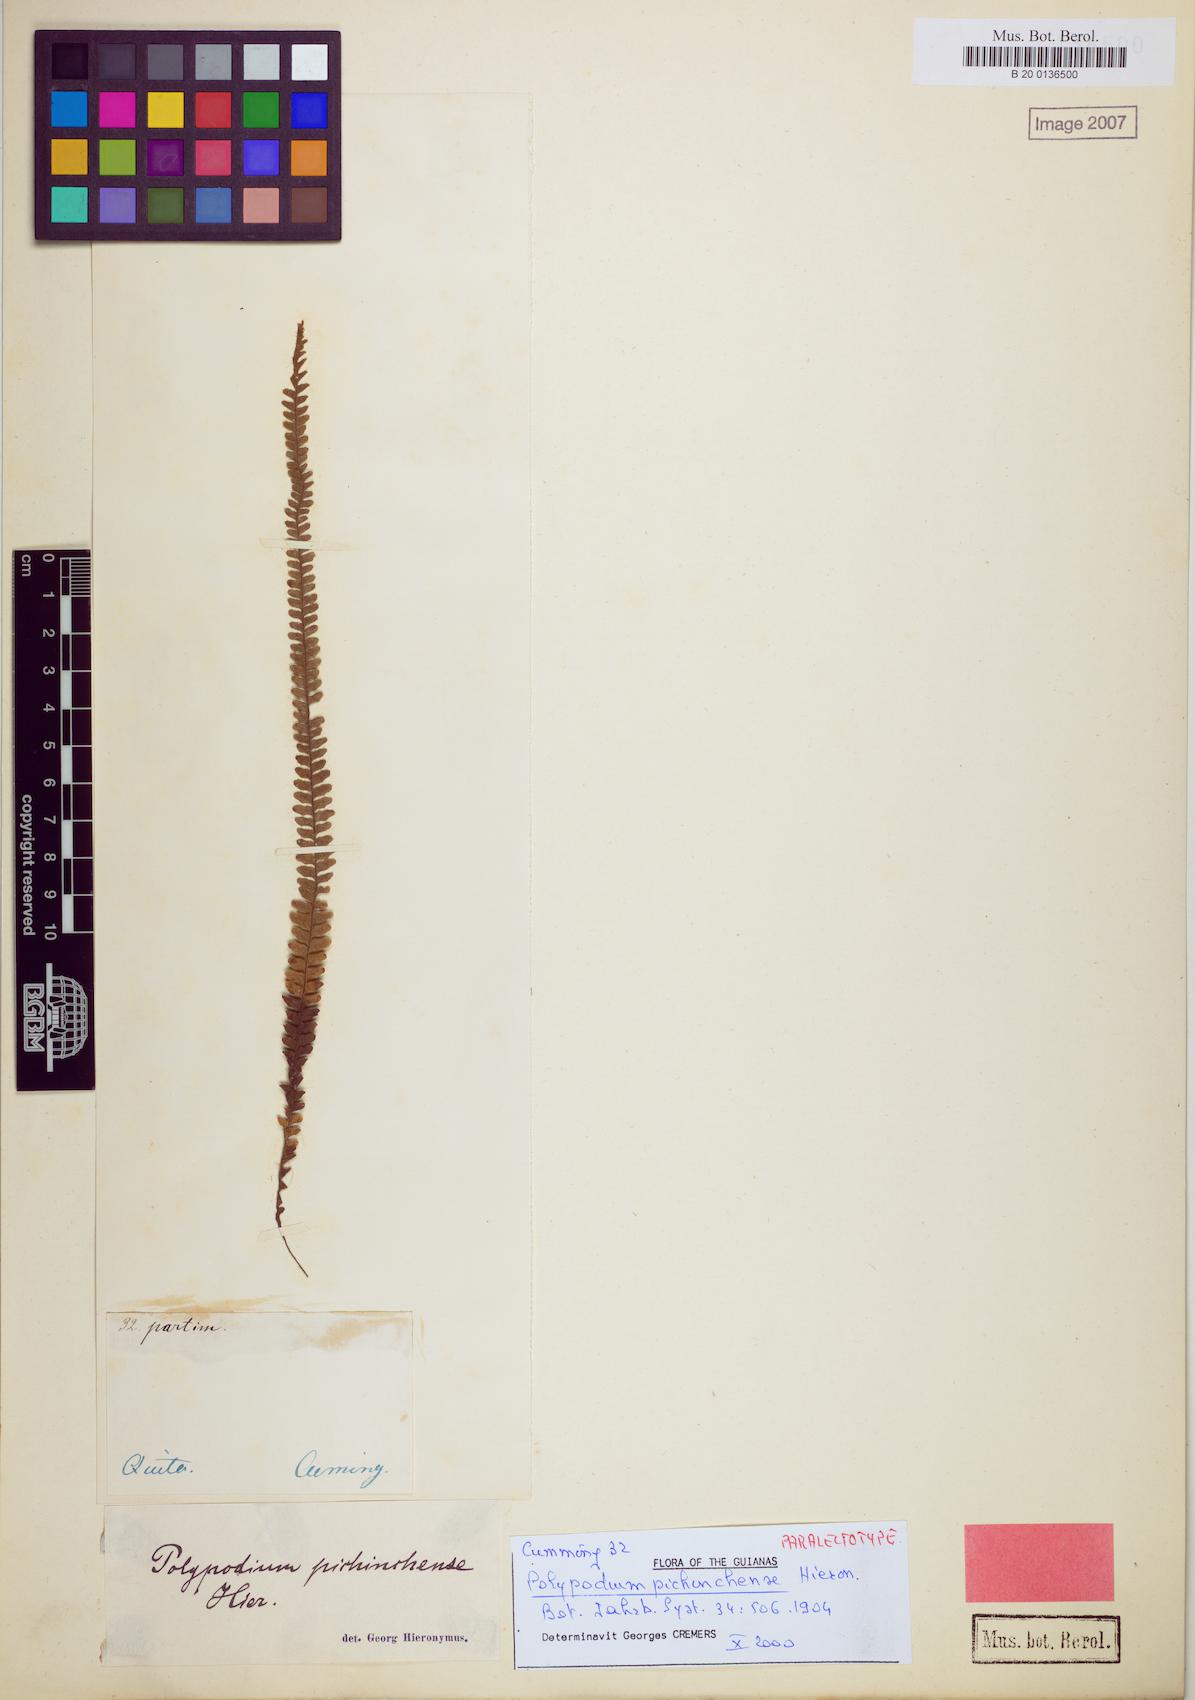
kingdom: Plantae
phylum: Tracheophyta
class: Polypodiopsida
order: Polypodiales
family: Polypodiaceae
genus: Ascogrammitis
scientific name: Ascogrammitis pichinchensis
